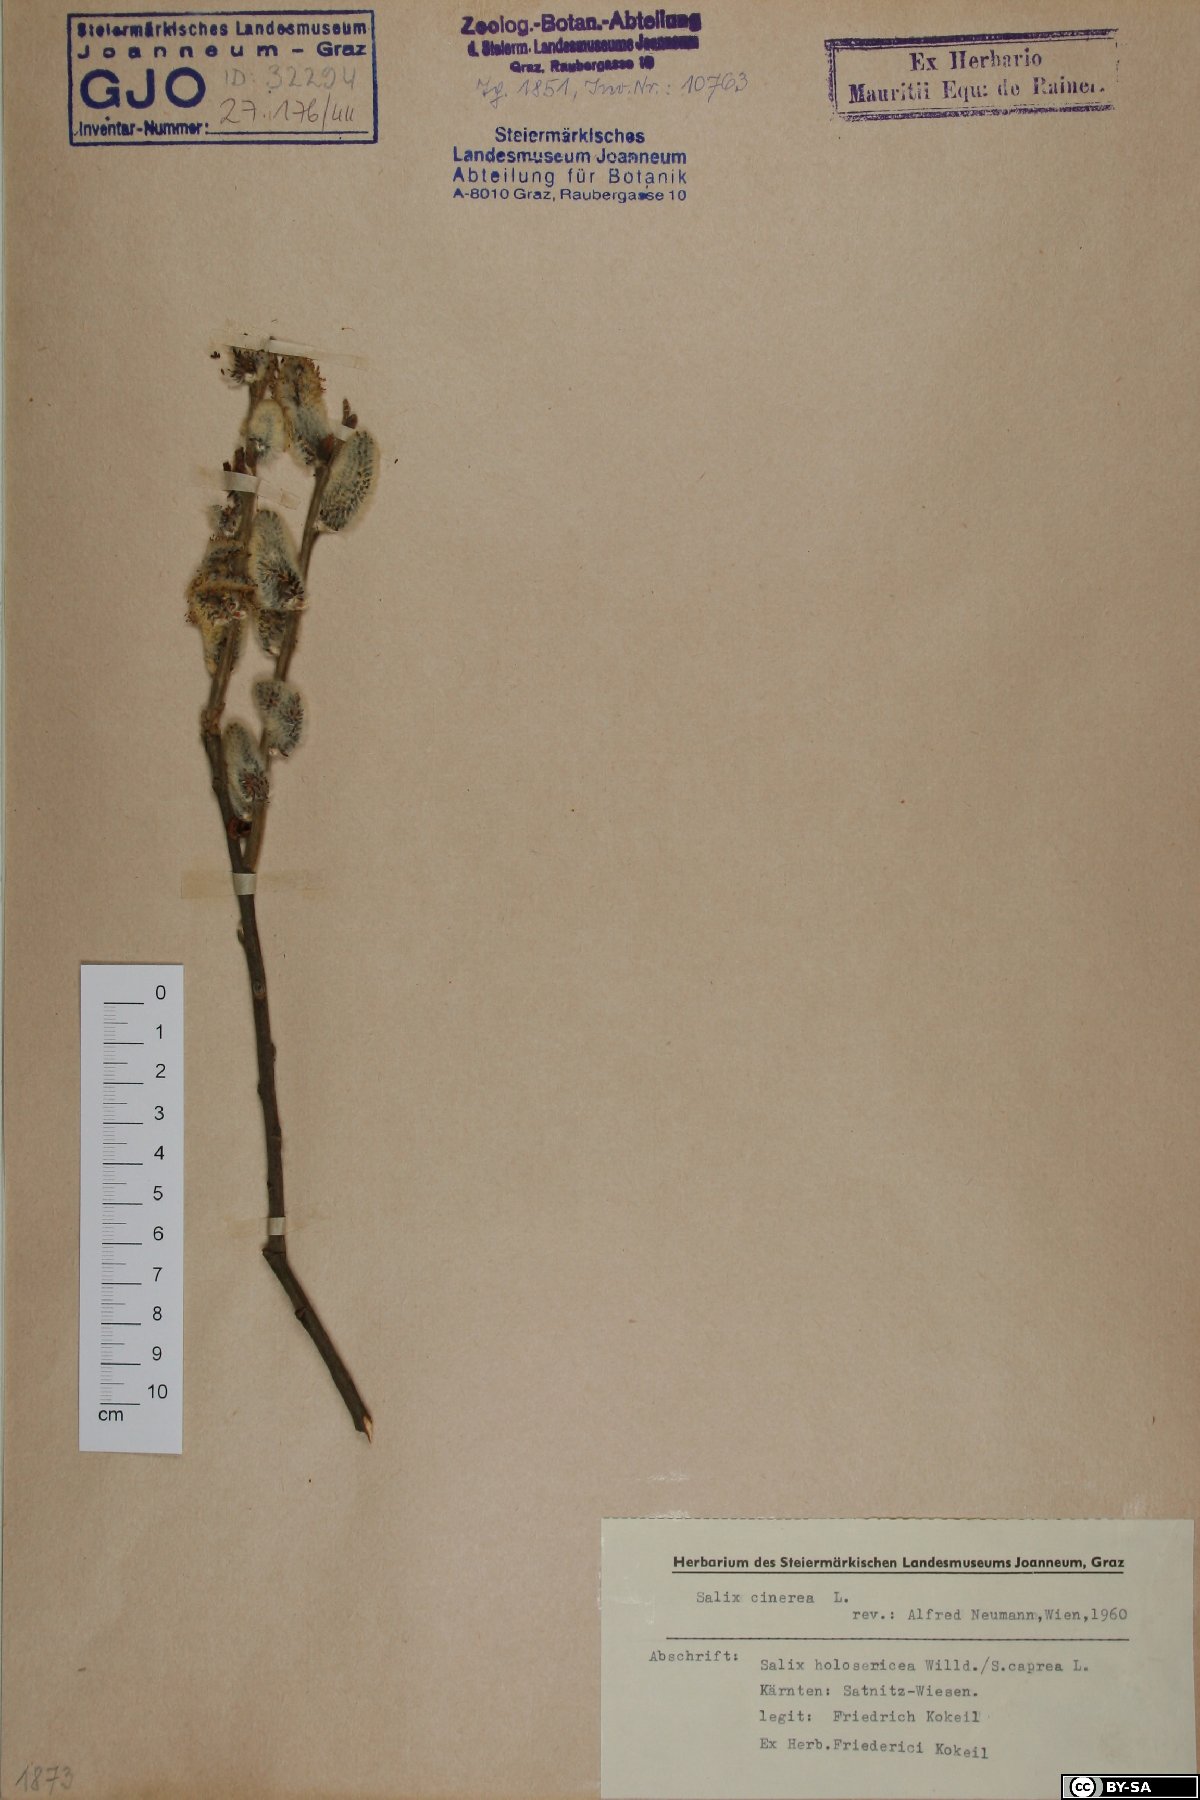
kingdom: Plantae
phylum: Tracheophyta
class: Magnoliopsida
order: Malpighiales
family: Salicaceae
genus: Salix
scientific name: Salix cinerea
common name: Common sallow
